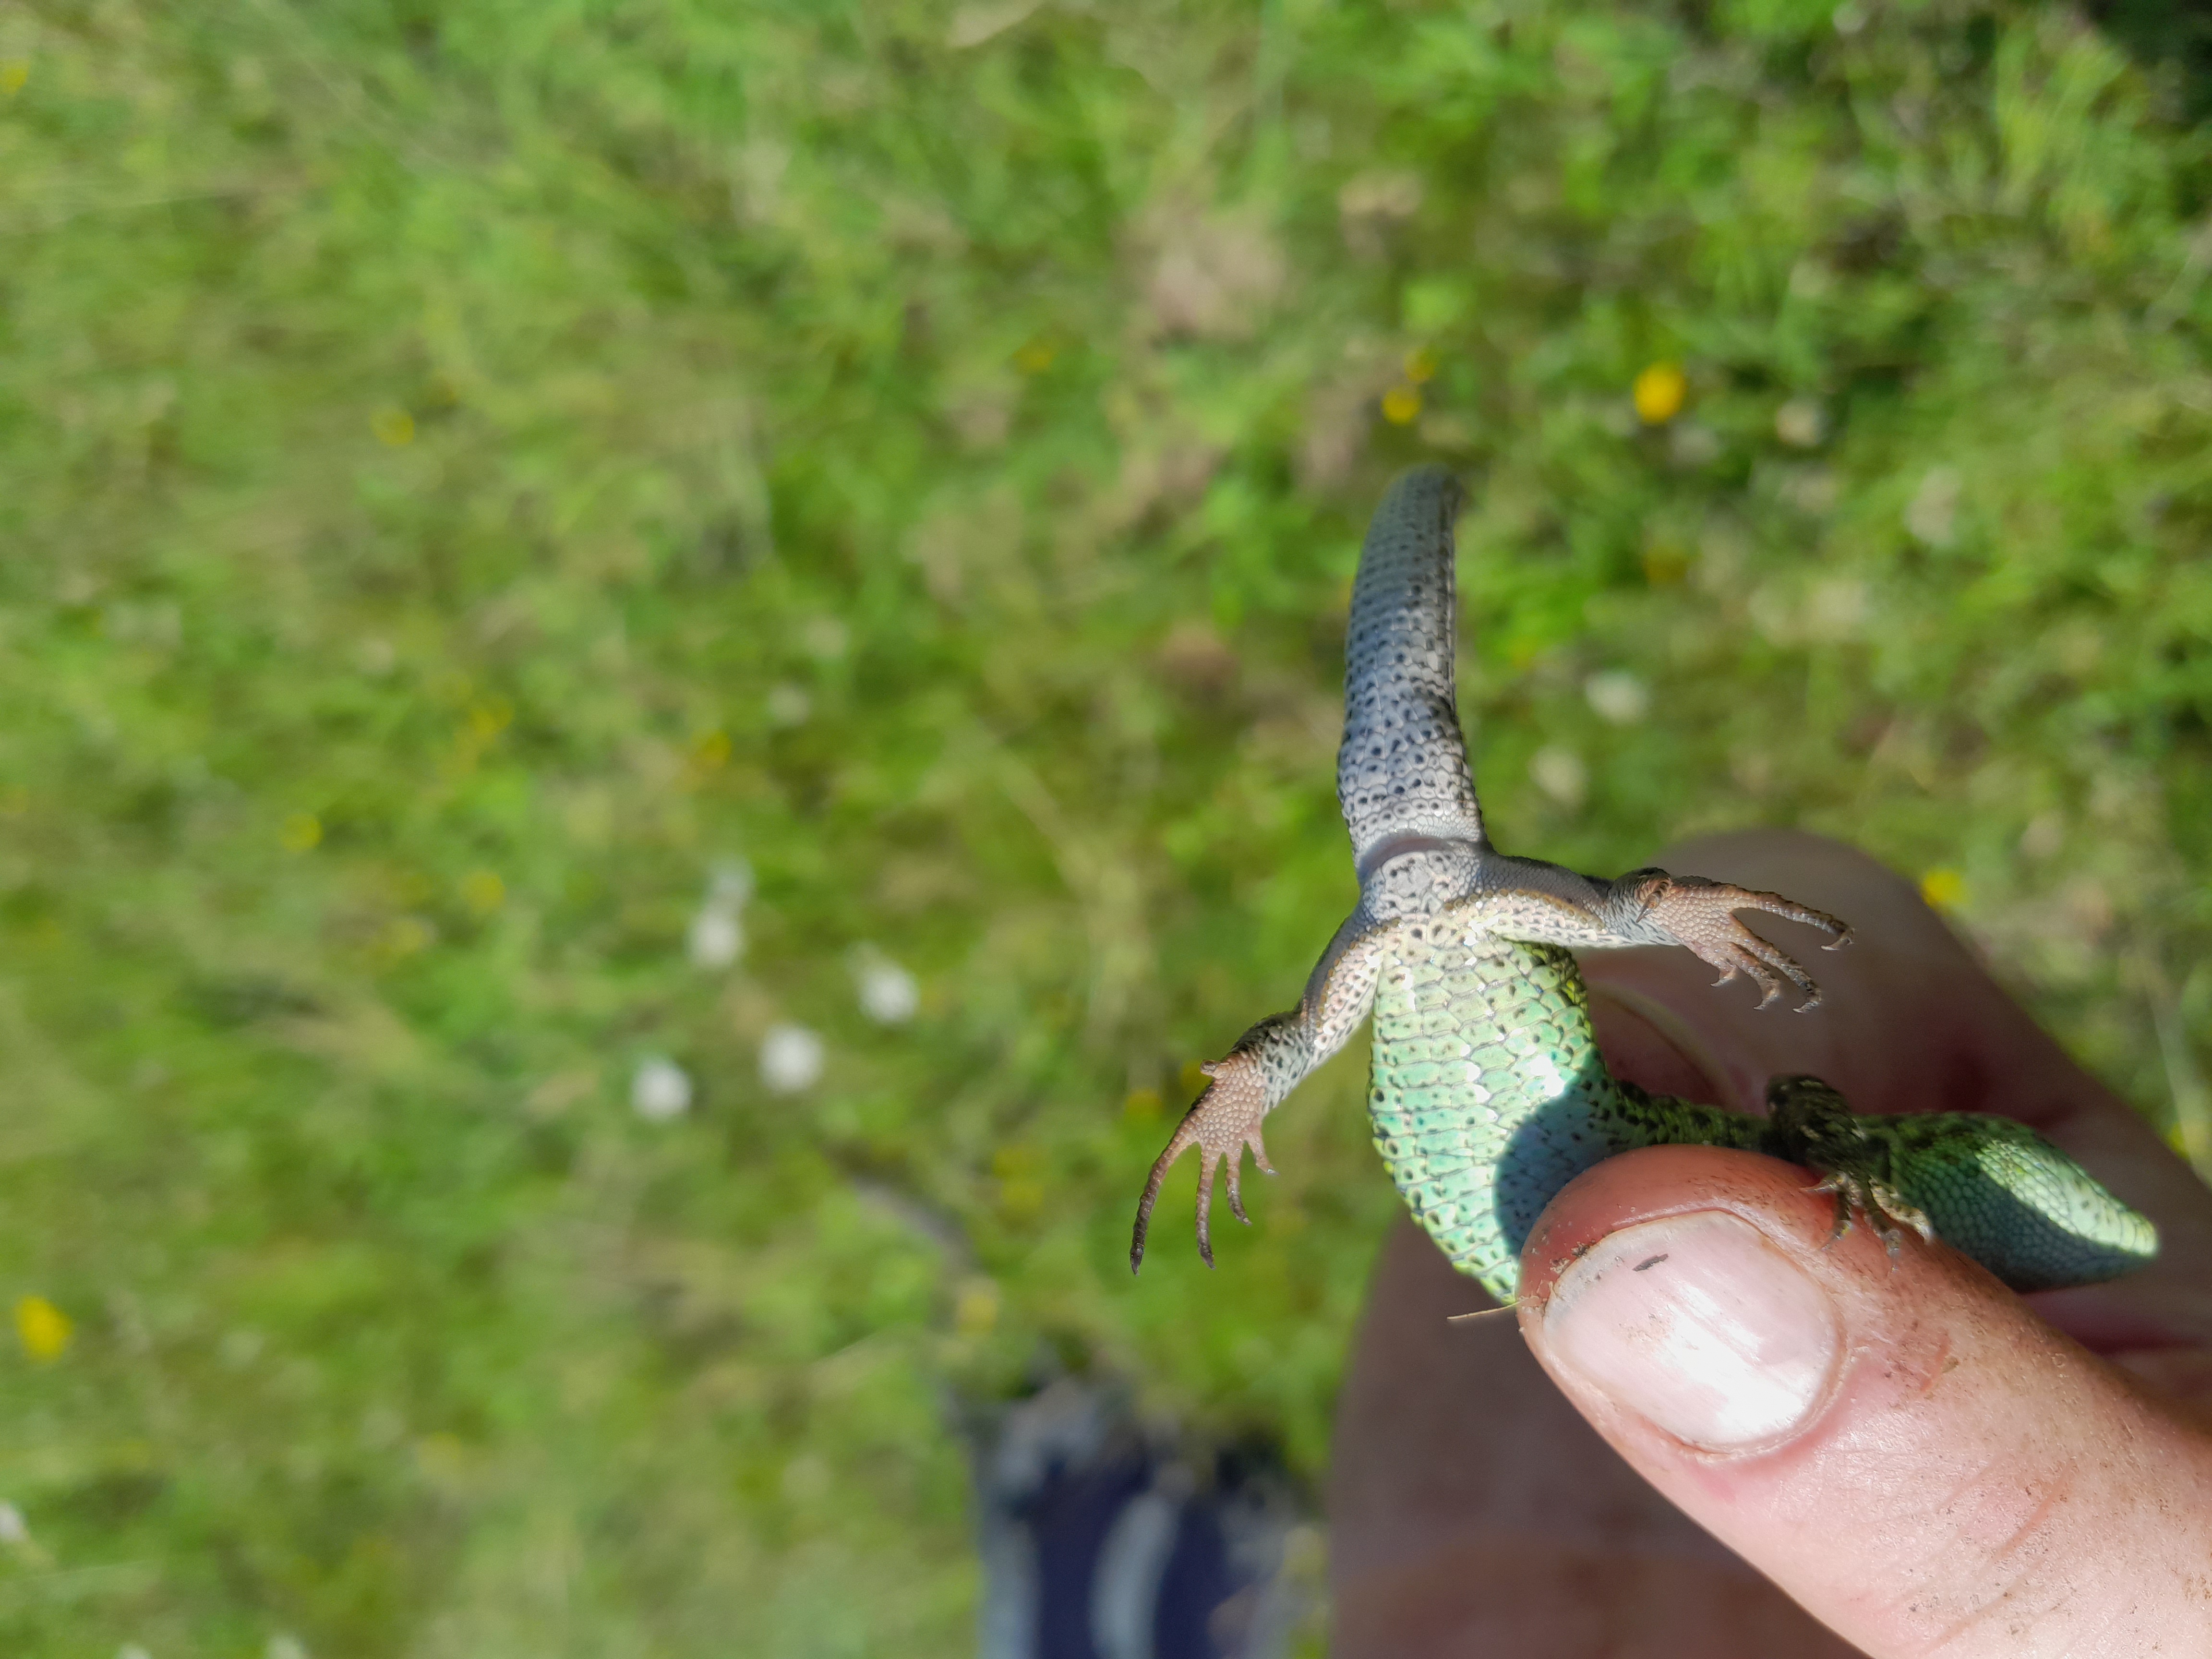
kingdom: Animalia
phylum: Chordata
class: Squamata
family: Lacertidae
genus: Lacerta
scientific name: Lacerta agilis
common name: Markfirben
